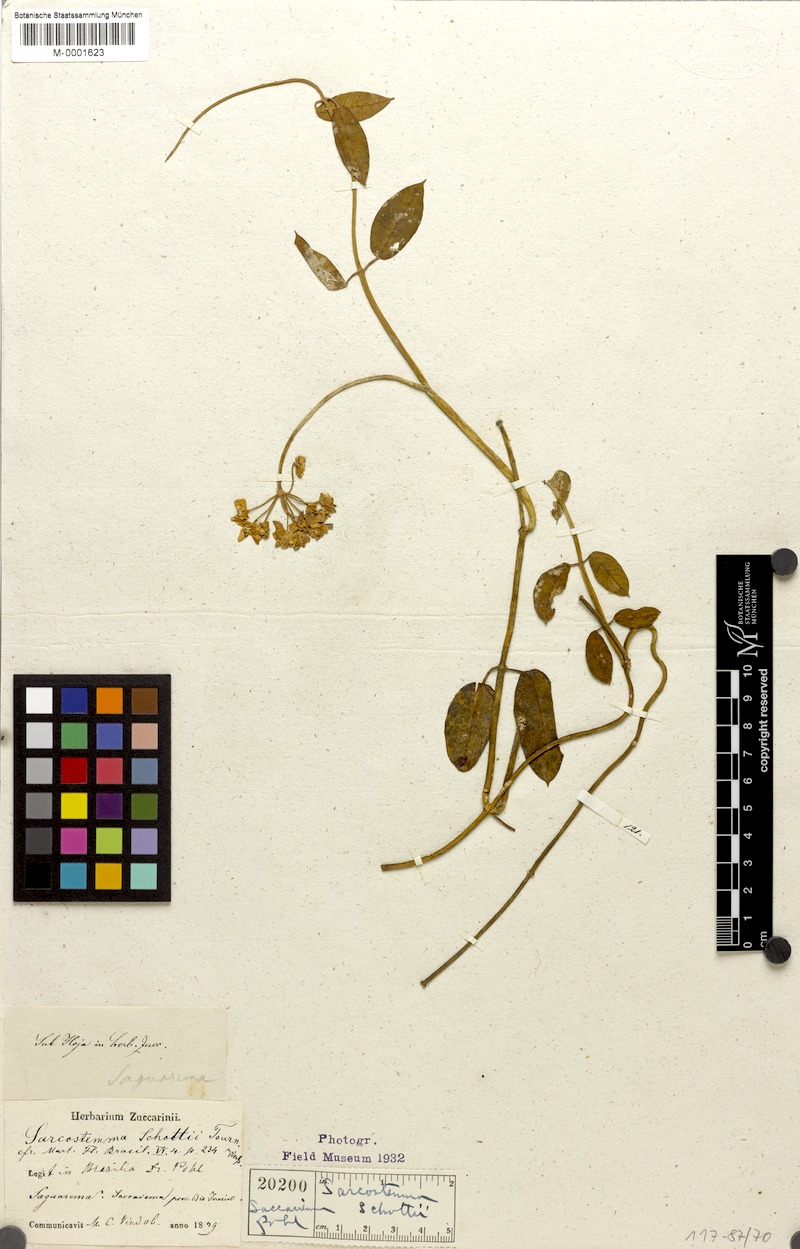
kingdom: Plantae
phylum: Tracheophyta
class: Magnoliopsida
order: Gentianales
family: Apocynaceae
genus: Funastrum
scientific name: Funastrum clausum
